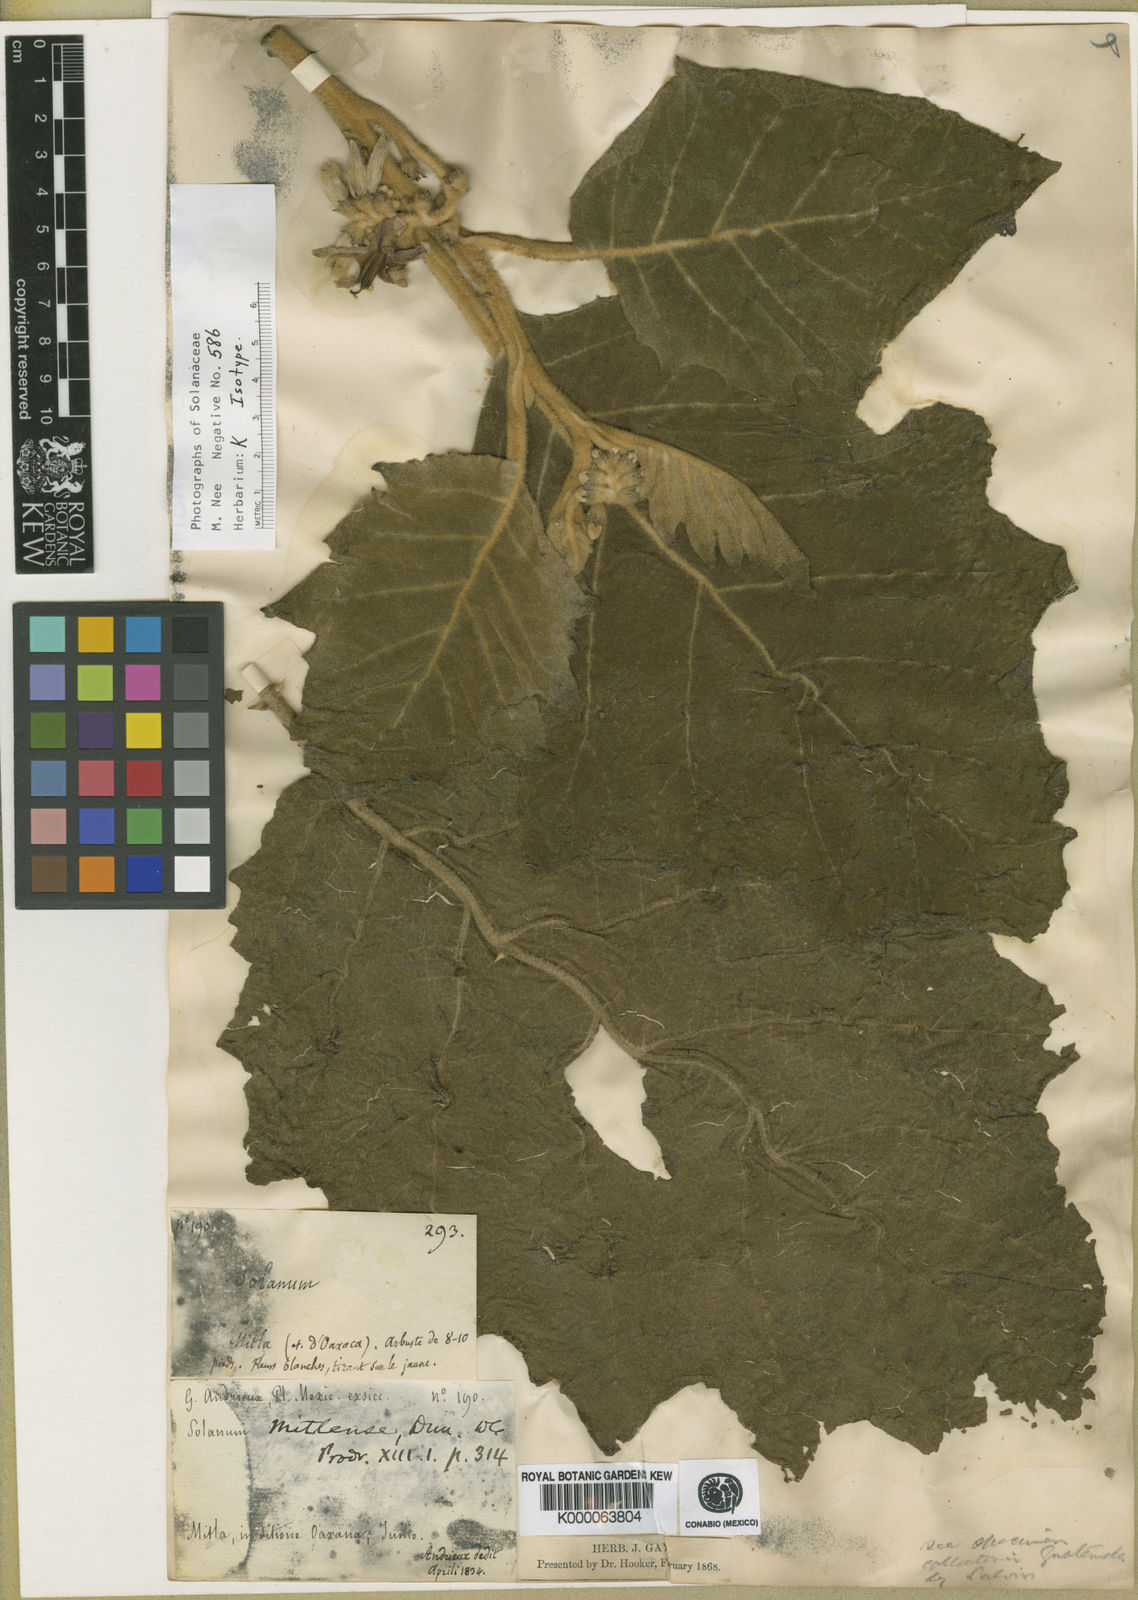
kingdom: Plantae
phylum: Tracheophyta
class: Magnoliopsida
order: Solanales
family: Solanaceae
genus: Solanum
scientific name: Solanum mitlense
